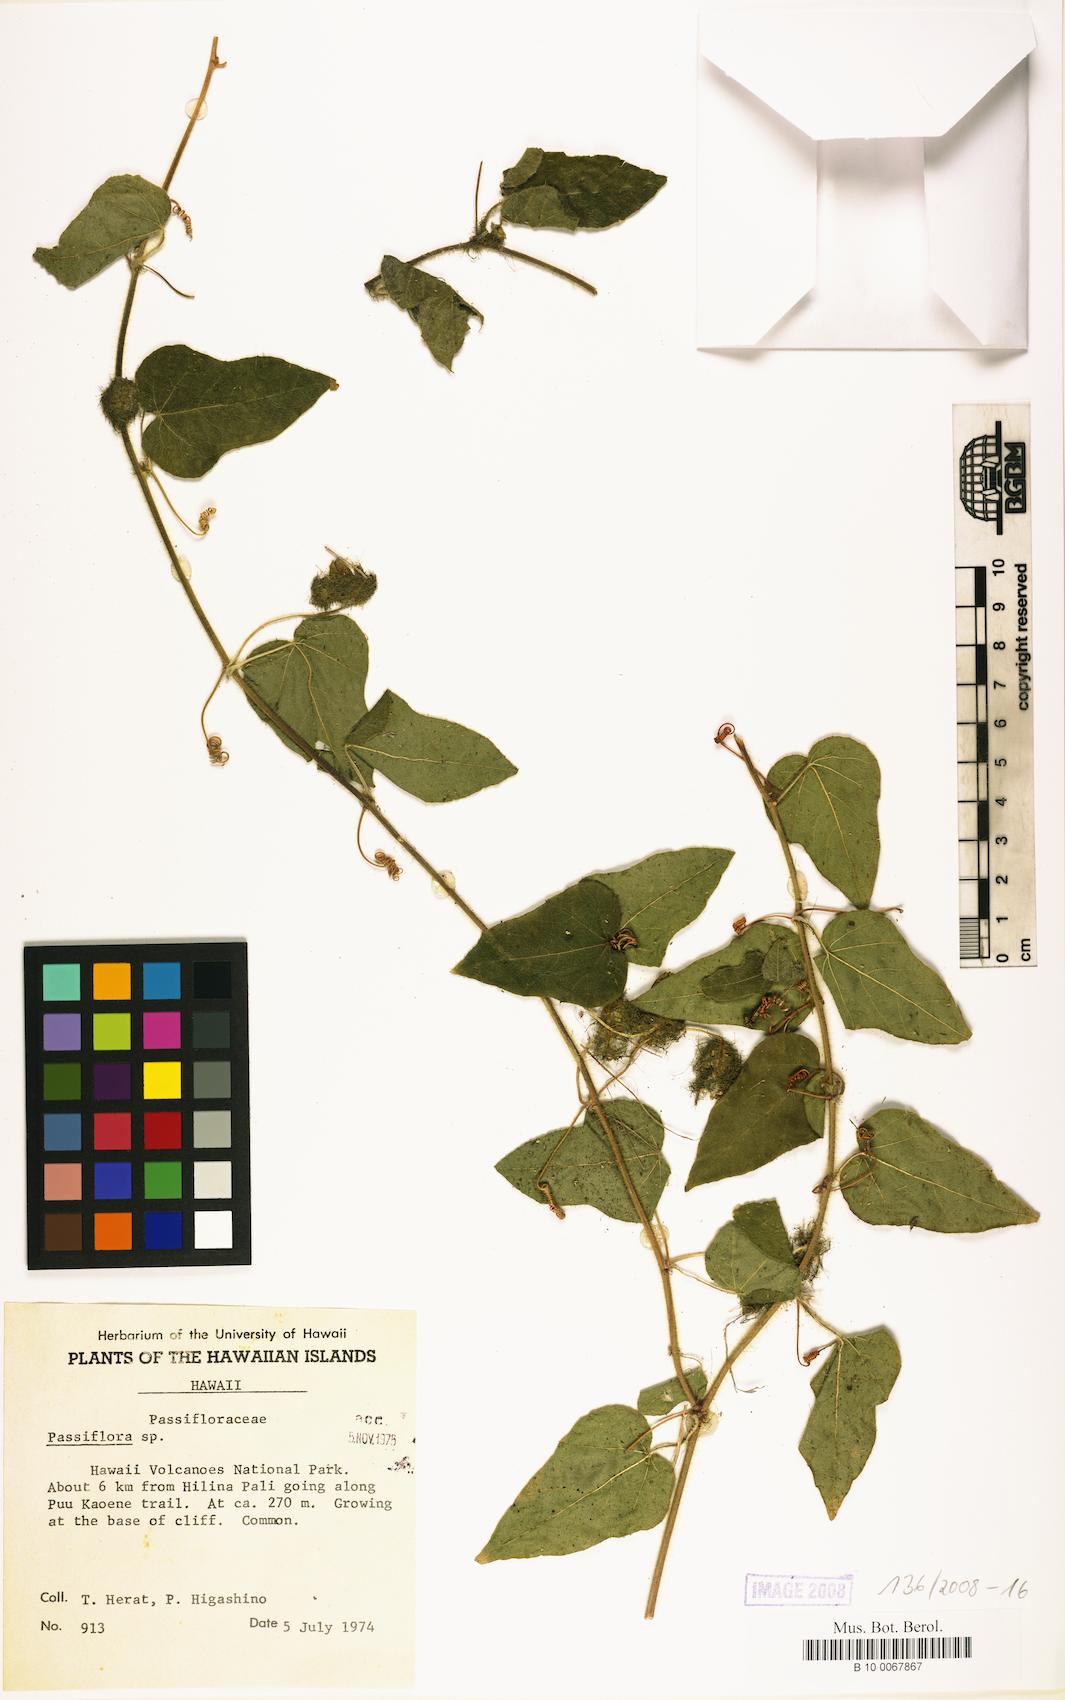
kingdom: Plantae
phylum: Tracheophyta
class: Magnoliopsida
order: Malpighiales
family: Passifloraceae
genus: Passiflora
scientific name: Passiflora foetida
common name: Fetid passionflower
